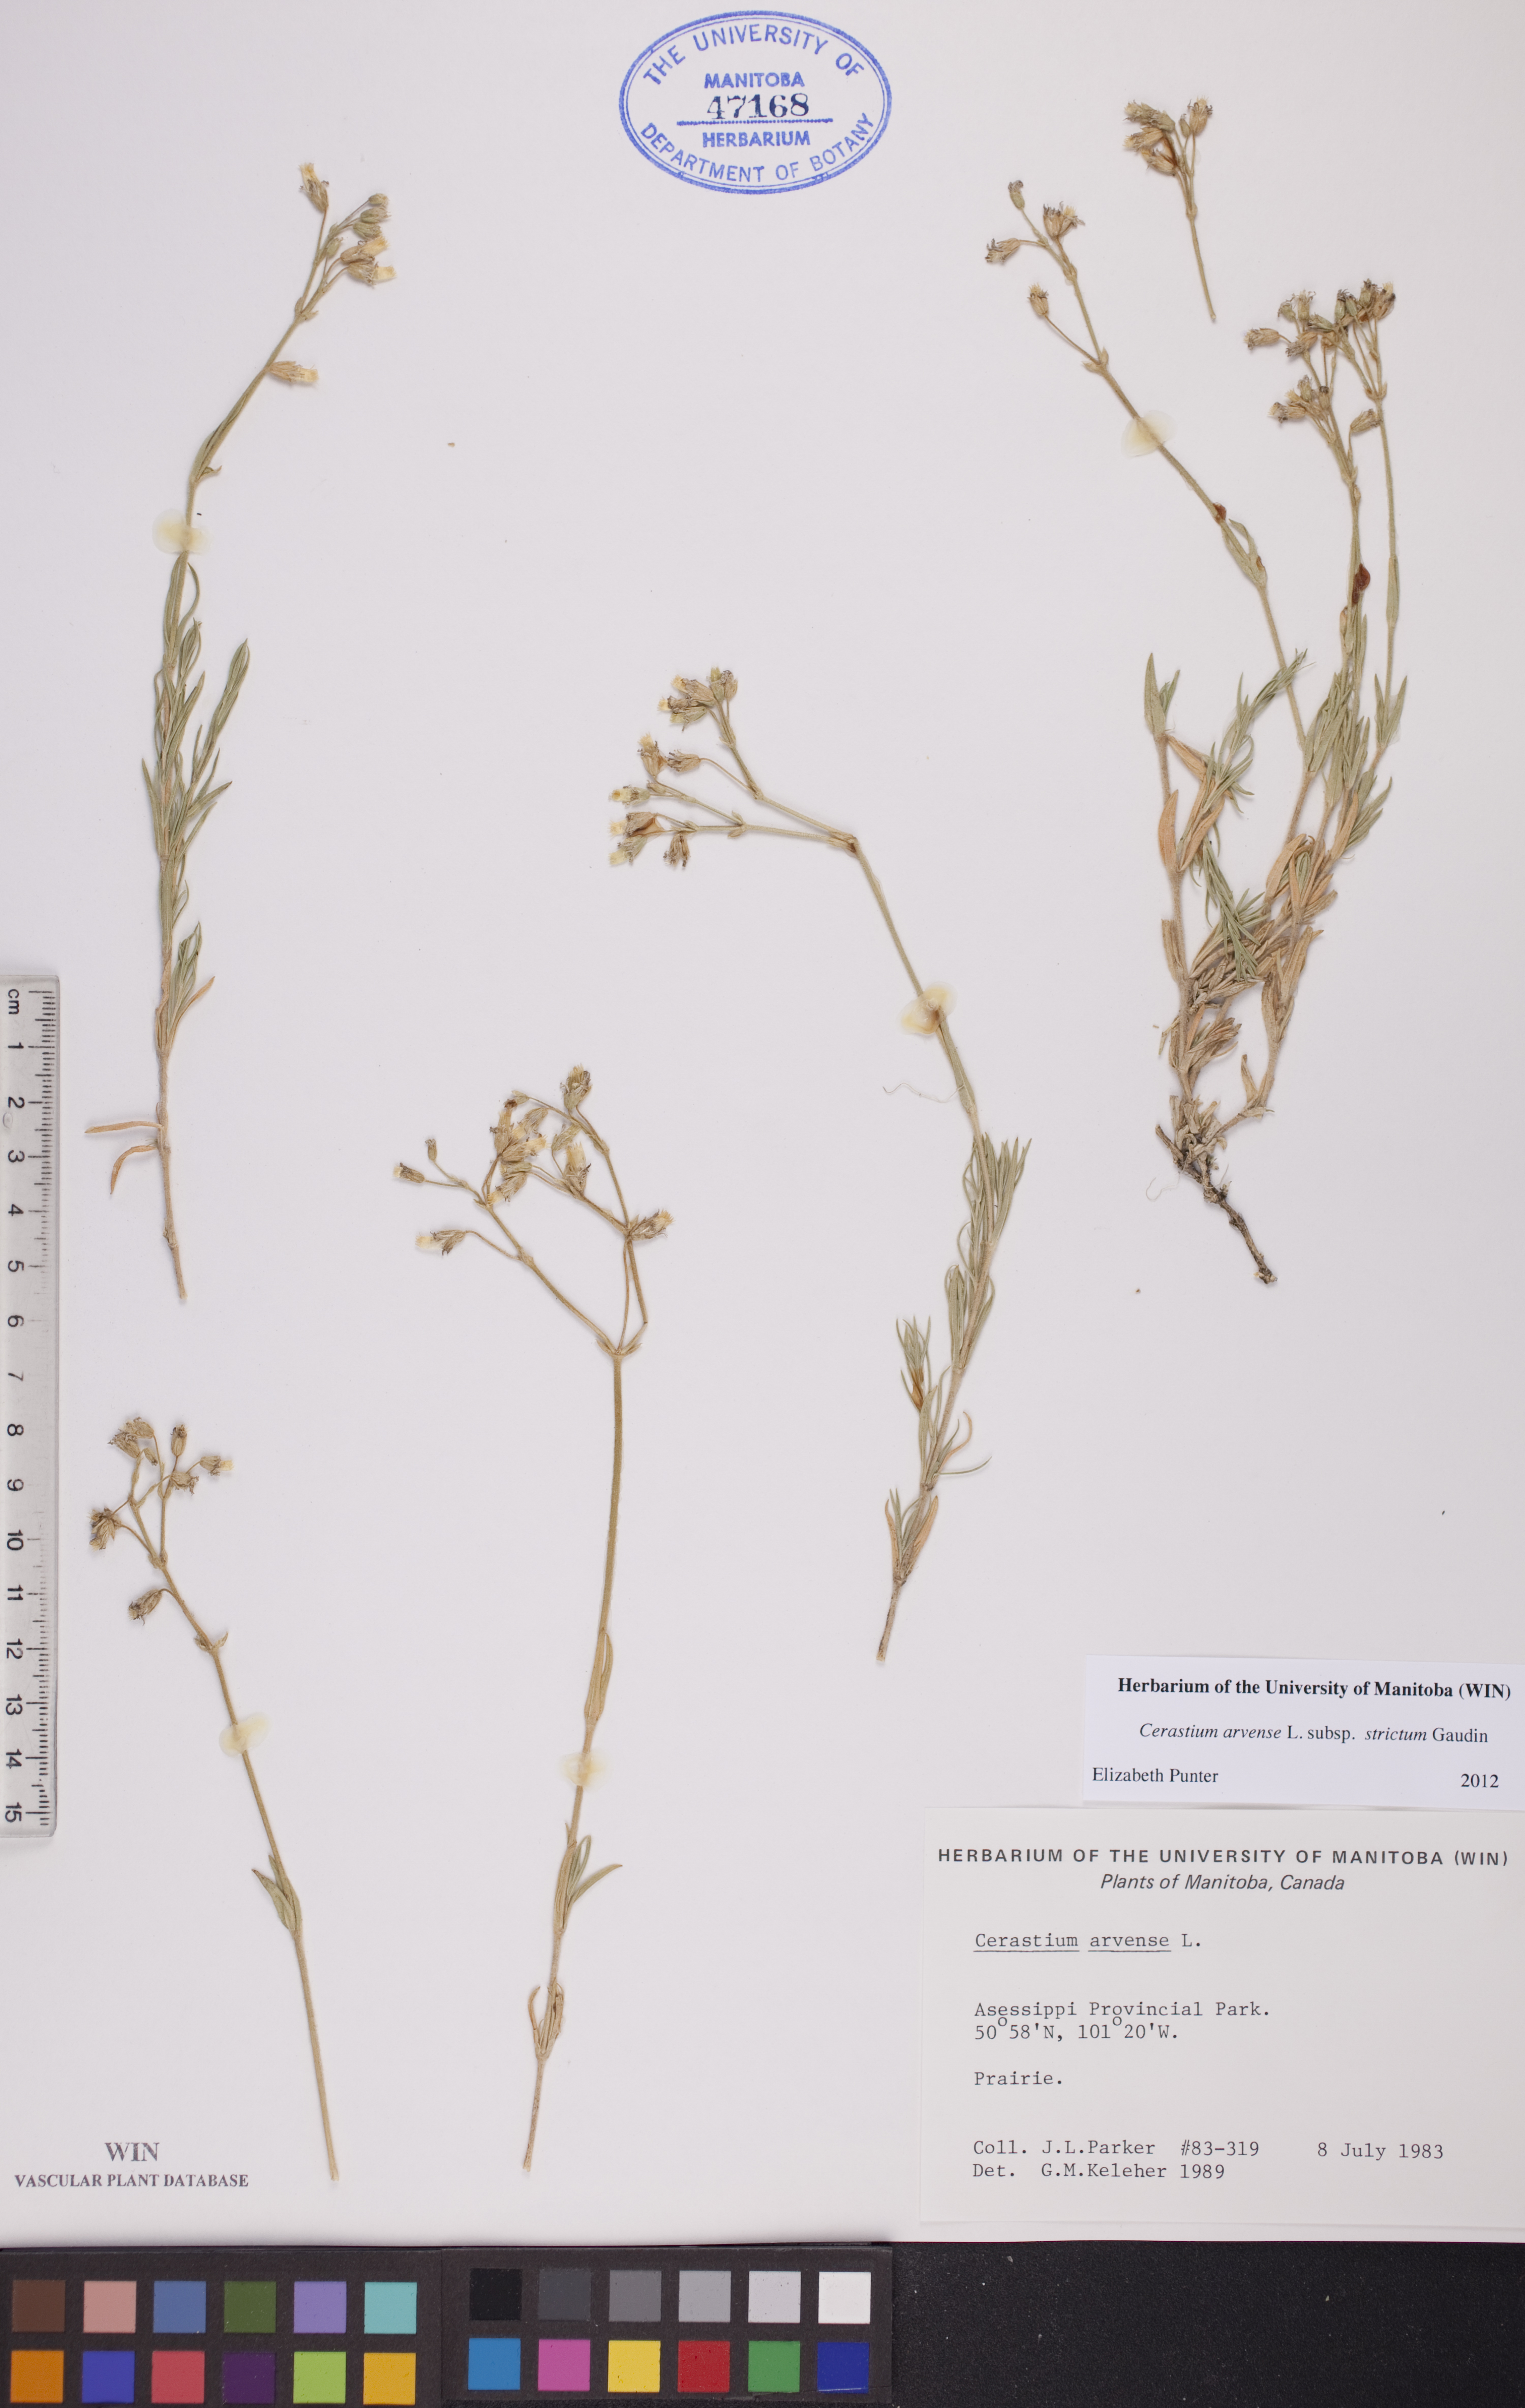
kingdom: Plantae
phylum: Tracheophyta
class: Magnoliopsida
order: Caryophyllales
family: Caryophyllaceae
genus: Cerastium
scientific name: Cerastium elongatum
